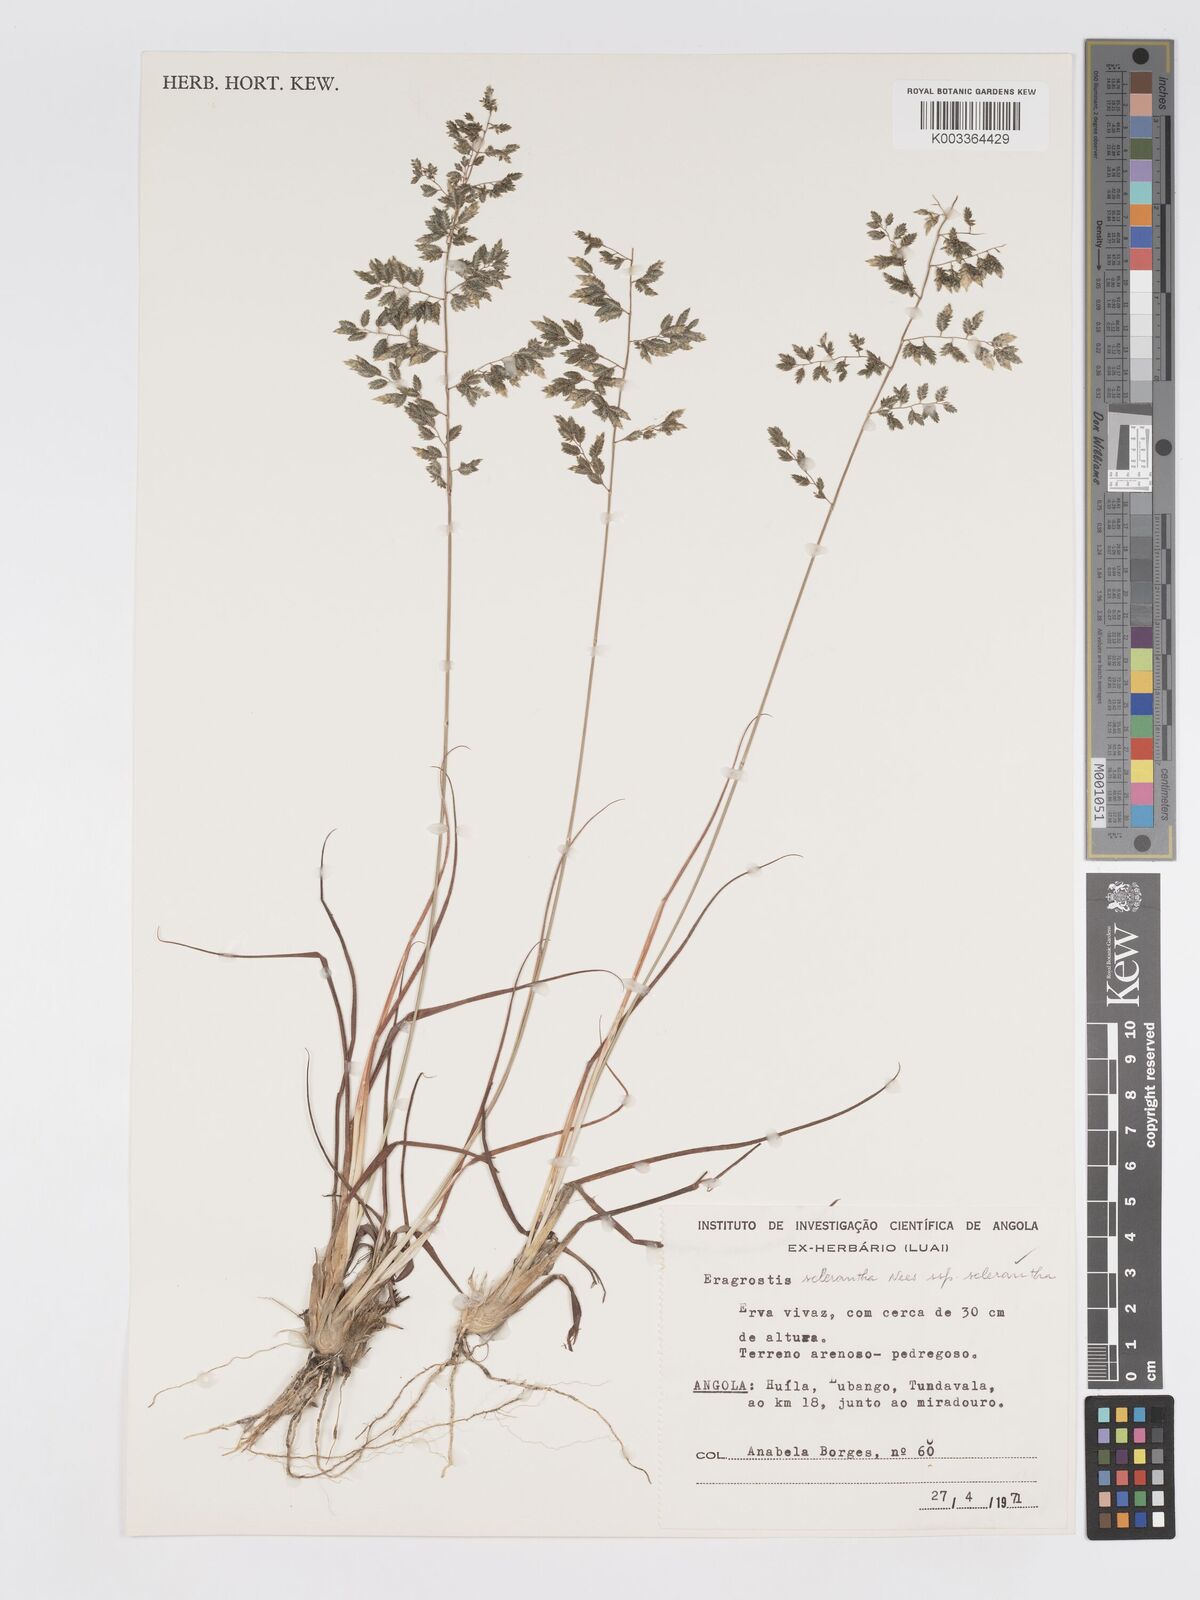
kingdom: Plantae
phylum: Tracheophyta
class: Liliopsida
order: Poales
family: Poaceae
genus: Eragrostis
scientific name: Eragrostis sclerantha
